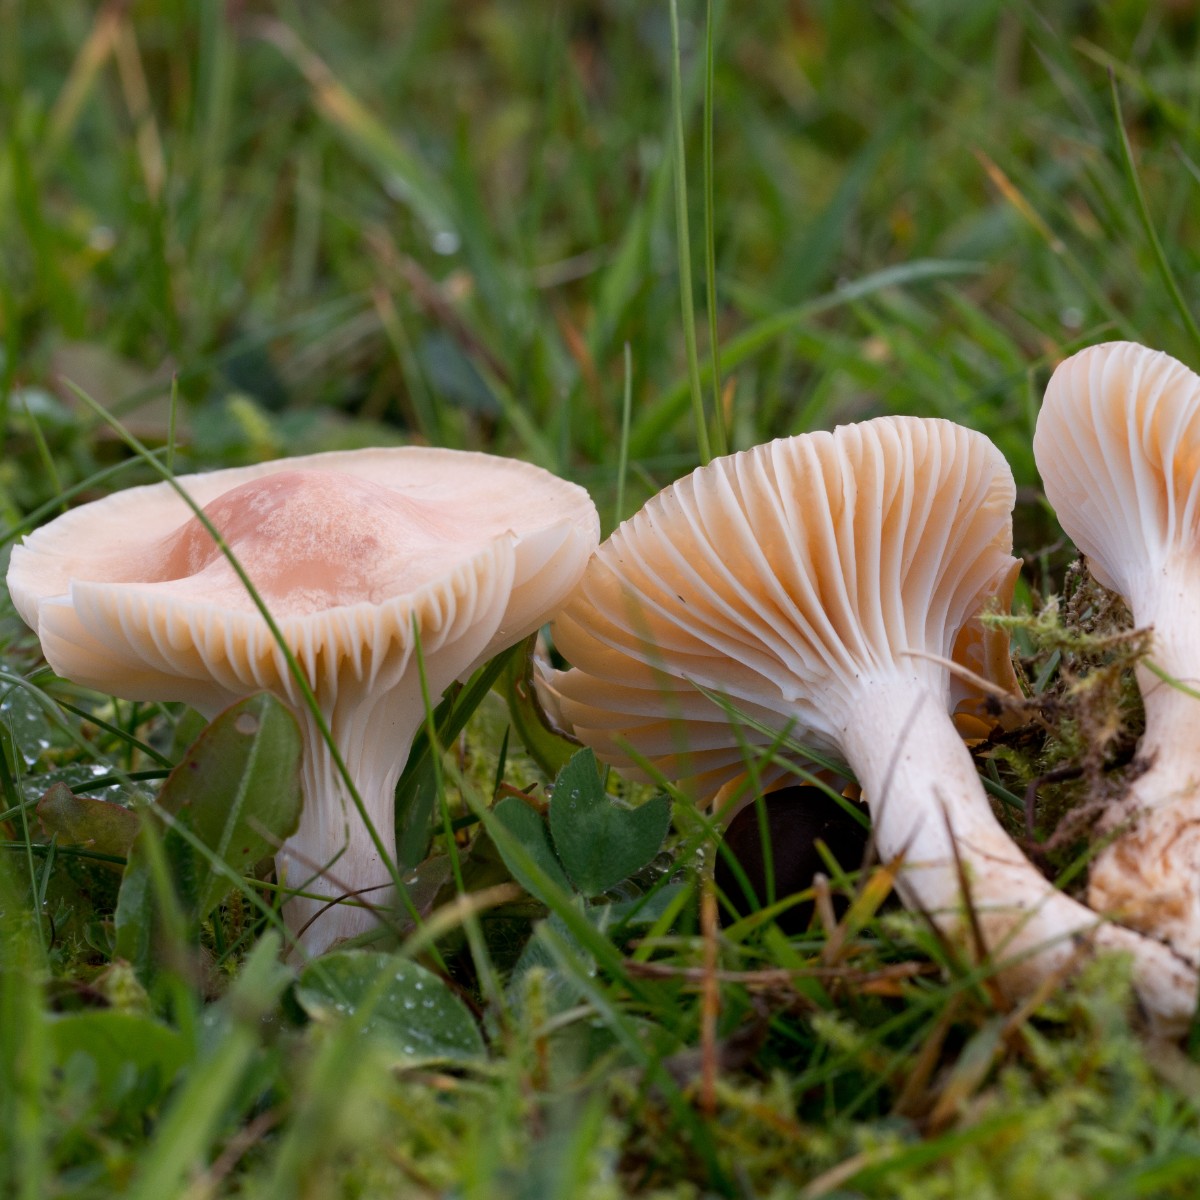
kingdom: Fungi
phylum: Basidiomycota
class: Agaricomycetes
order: Agaricales
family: Hygrophoraceae
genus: Cuphophyllus
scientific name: Cuphophyllus pratensis
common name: eng-vokshat
